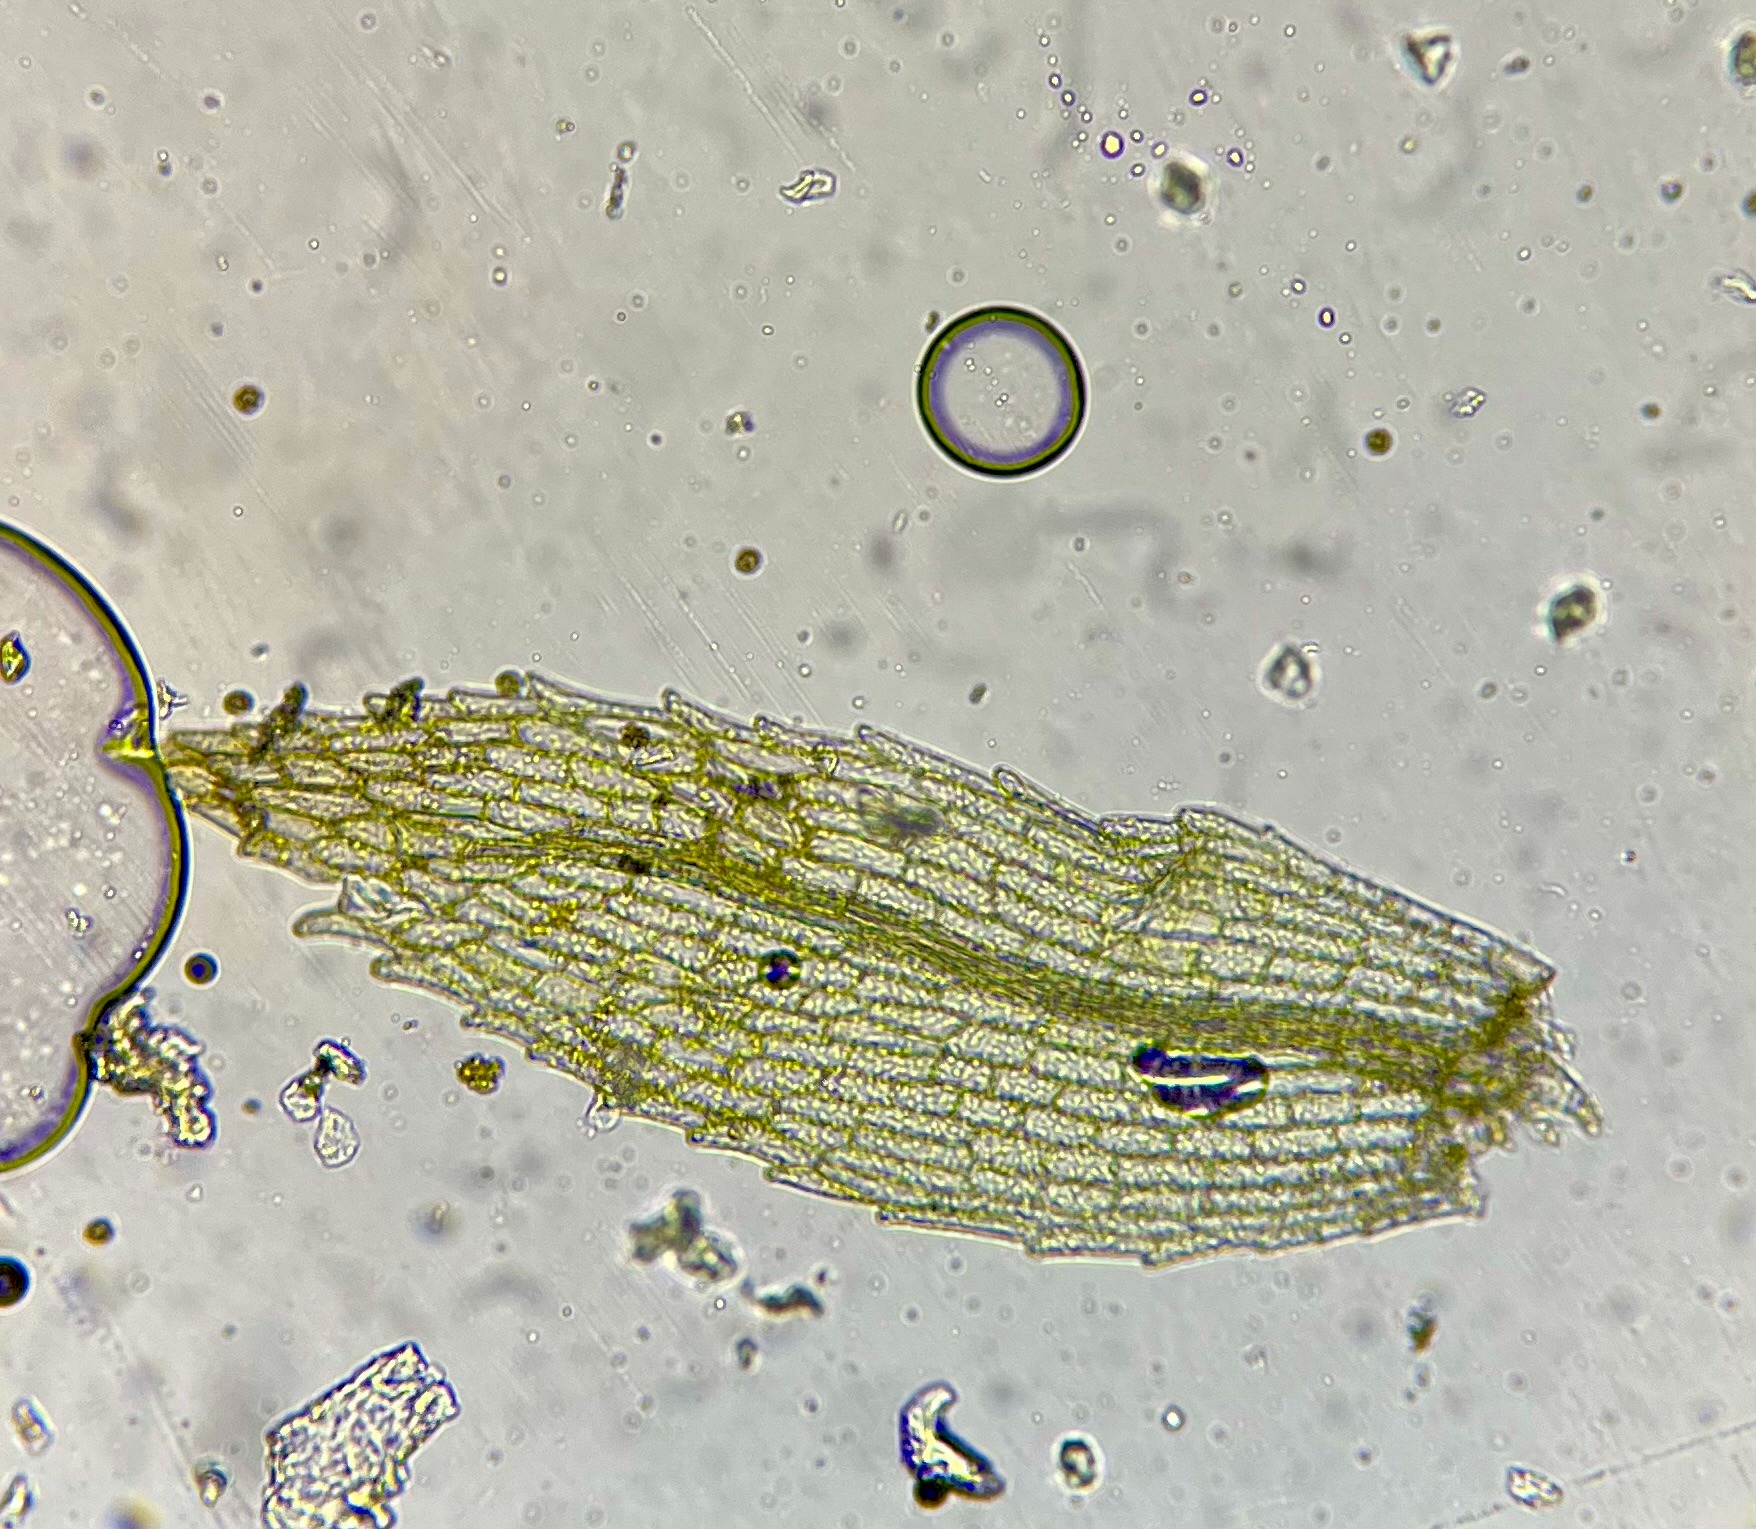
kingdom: Plantae
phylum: Bryophyta
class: Bryopsida
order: Funariales
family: Funariaceae
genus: Physcomitrium
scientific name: Physcomitrium patens
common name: Bulet muddermos
